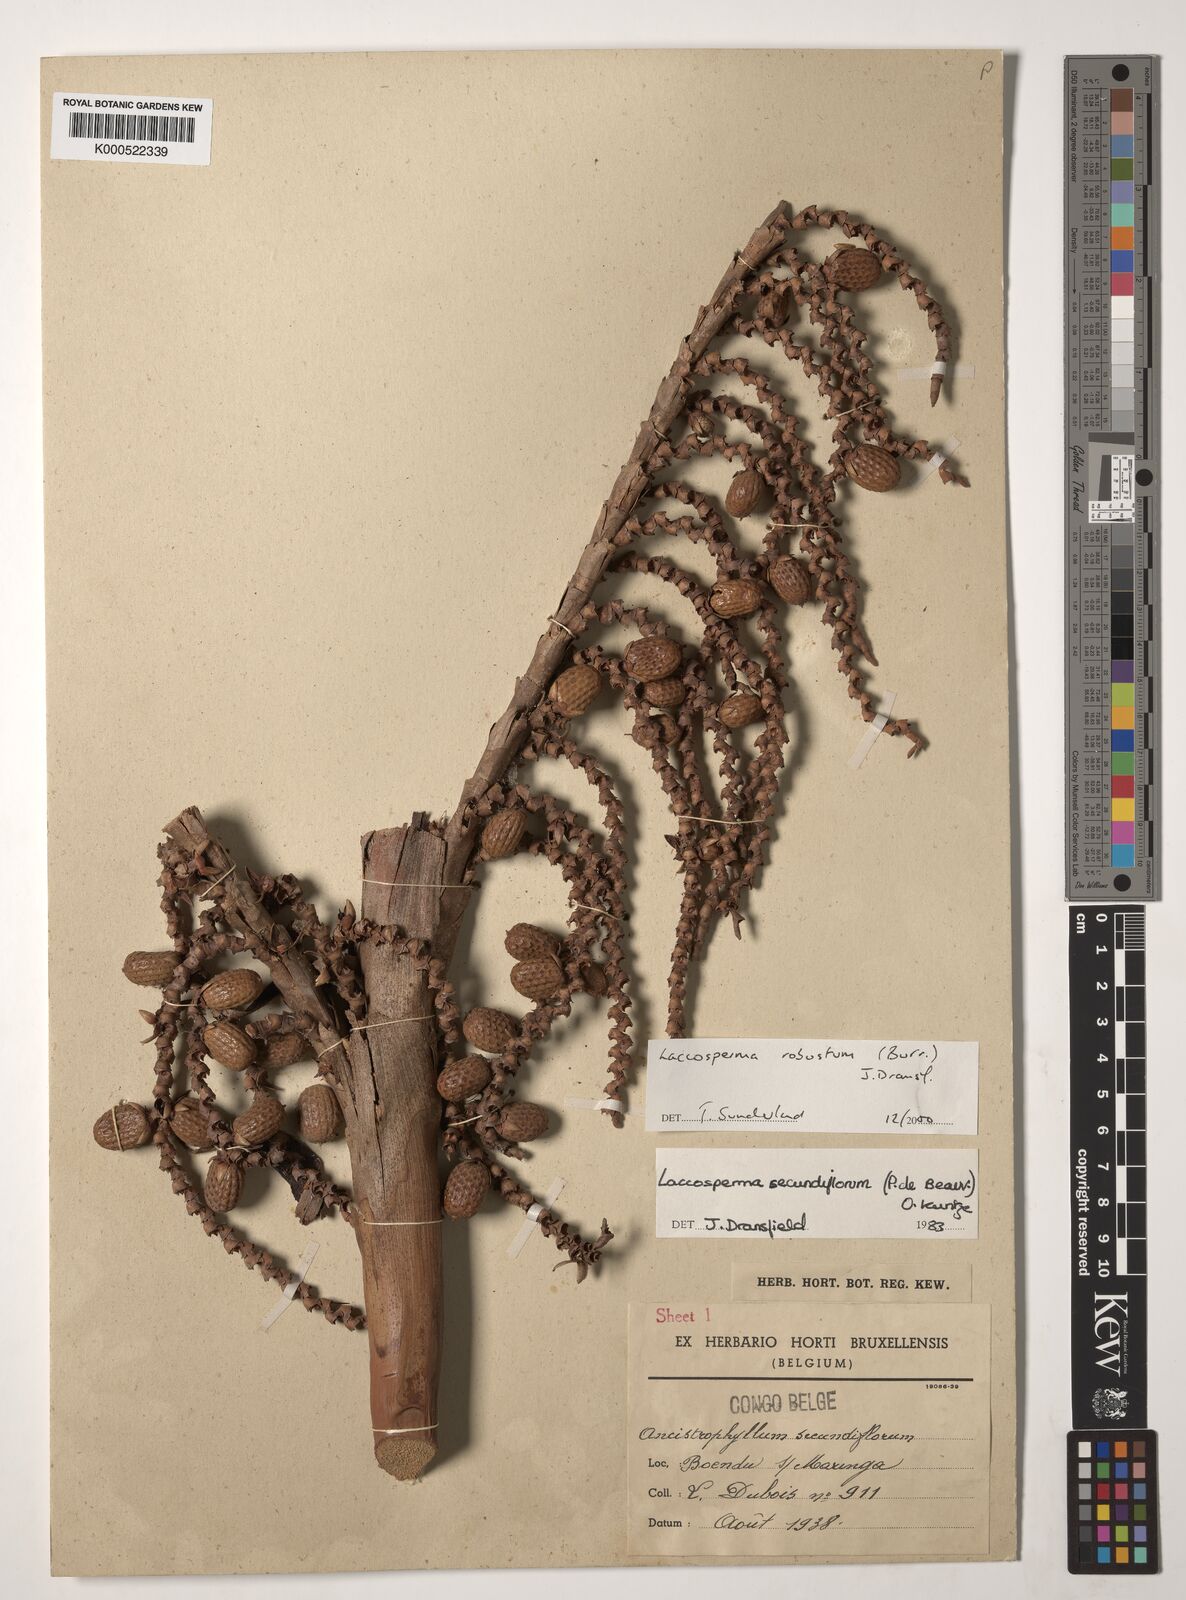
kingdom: Plantae
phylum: Tracheophyta
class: Liliopsida
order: Arecales
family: Arecaceae
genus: Laccosperma
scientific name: Laccosperma robustum
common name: Rattan
